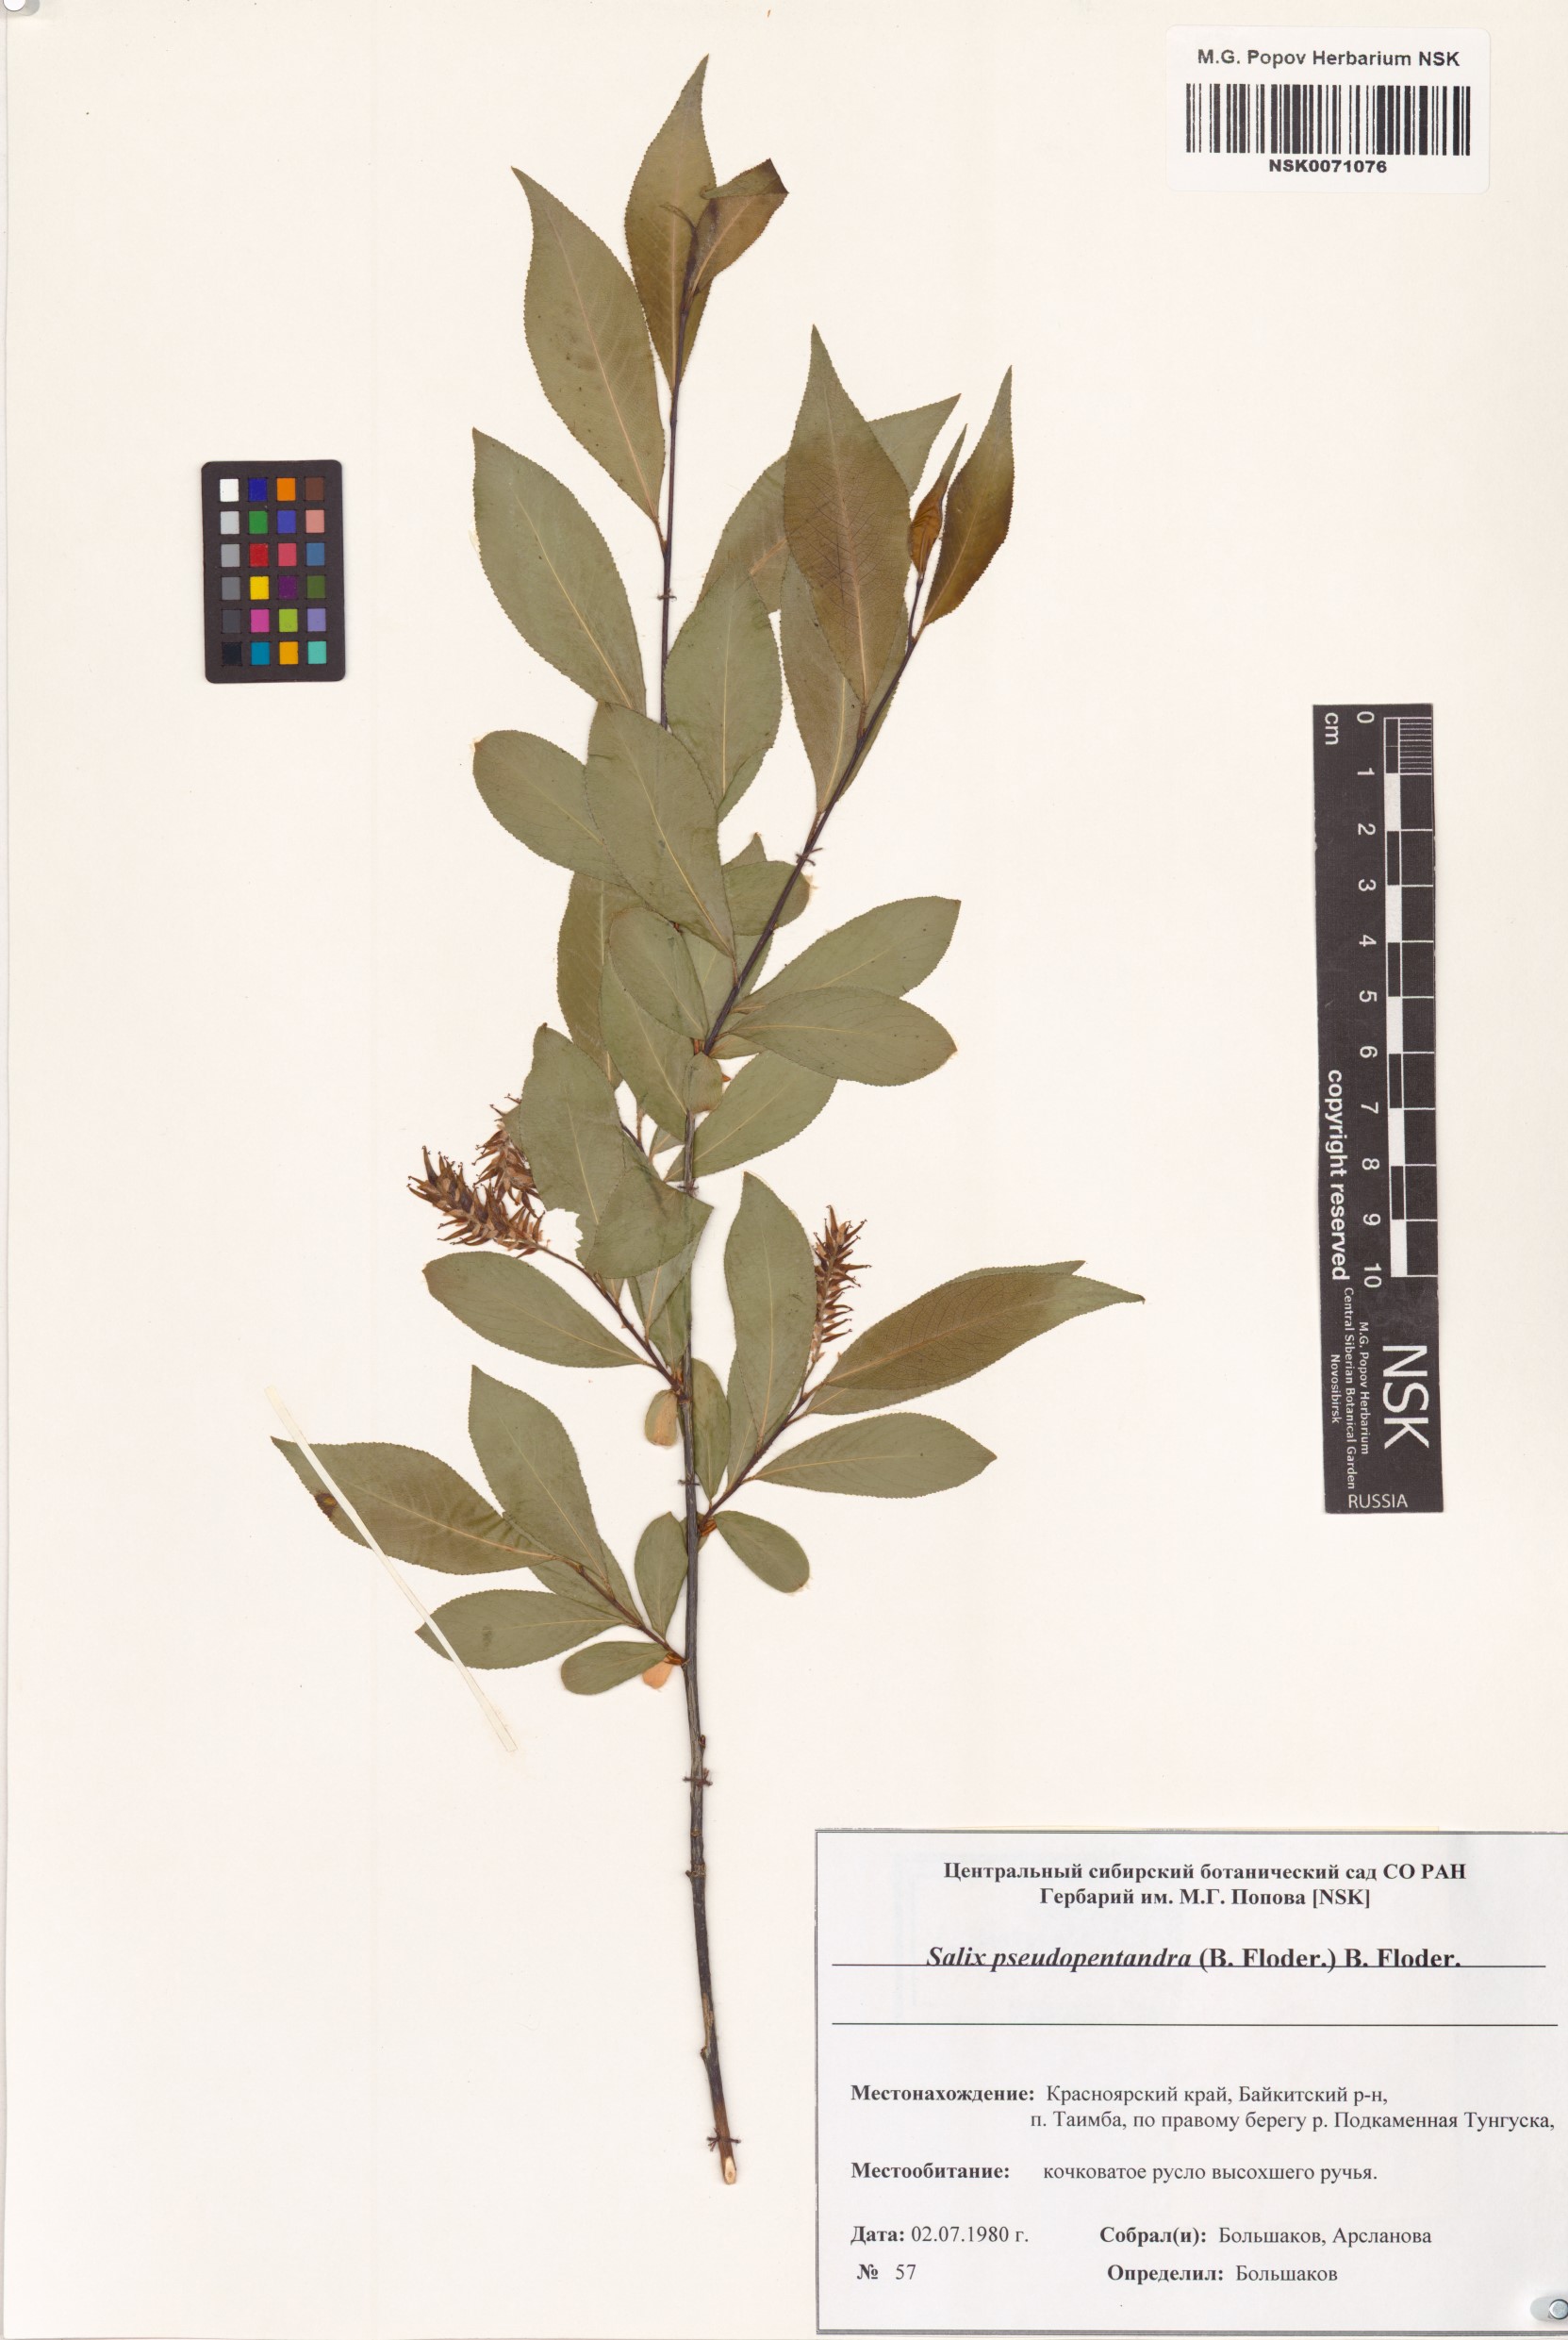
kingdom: Plantae
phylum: Tracheophyta
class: Magnoliopsida
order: Malpighiales
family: Salicaceae
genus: Salix
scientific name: Salix pseudopentandra
